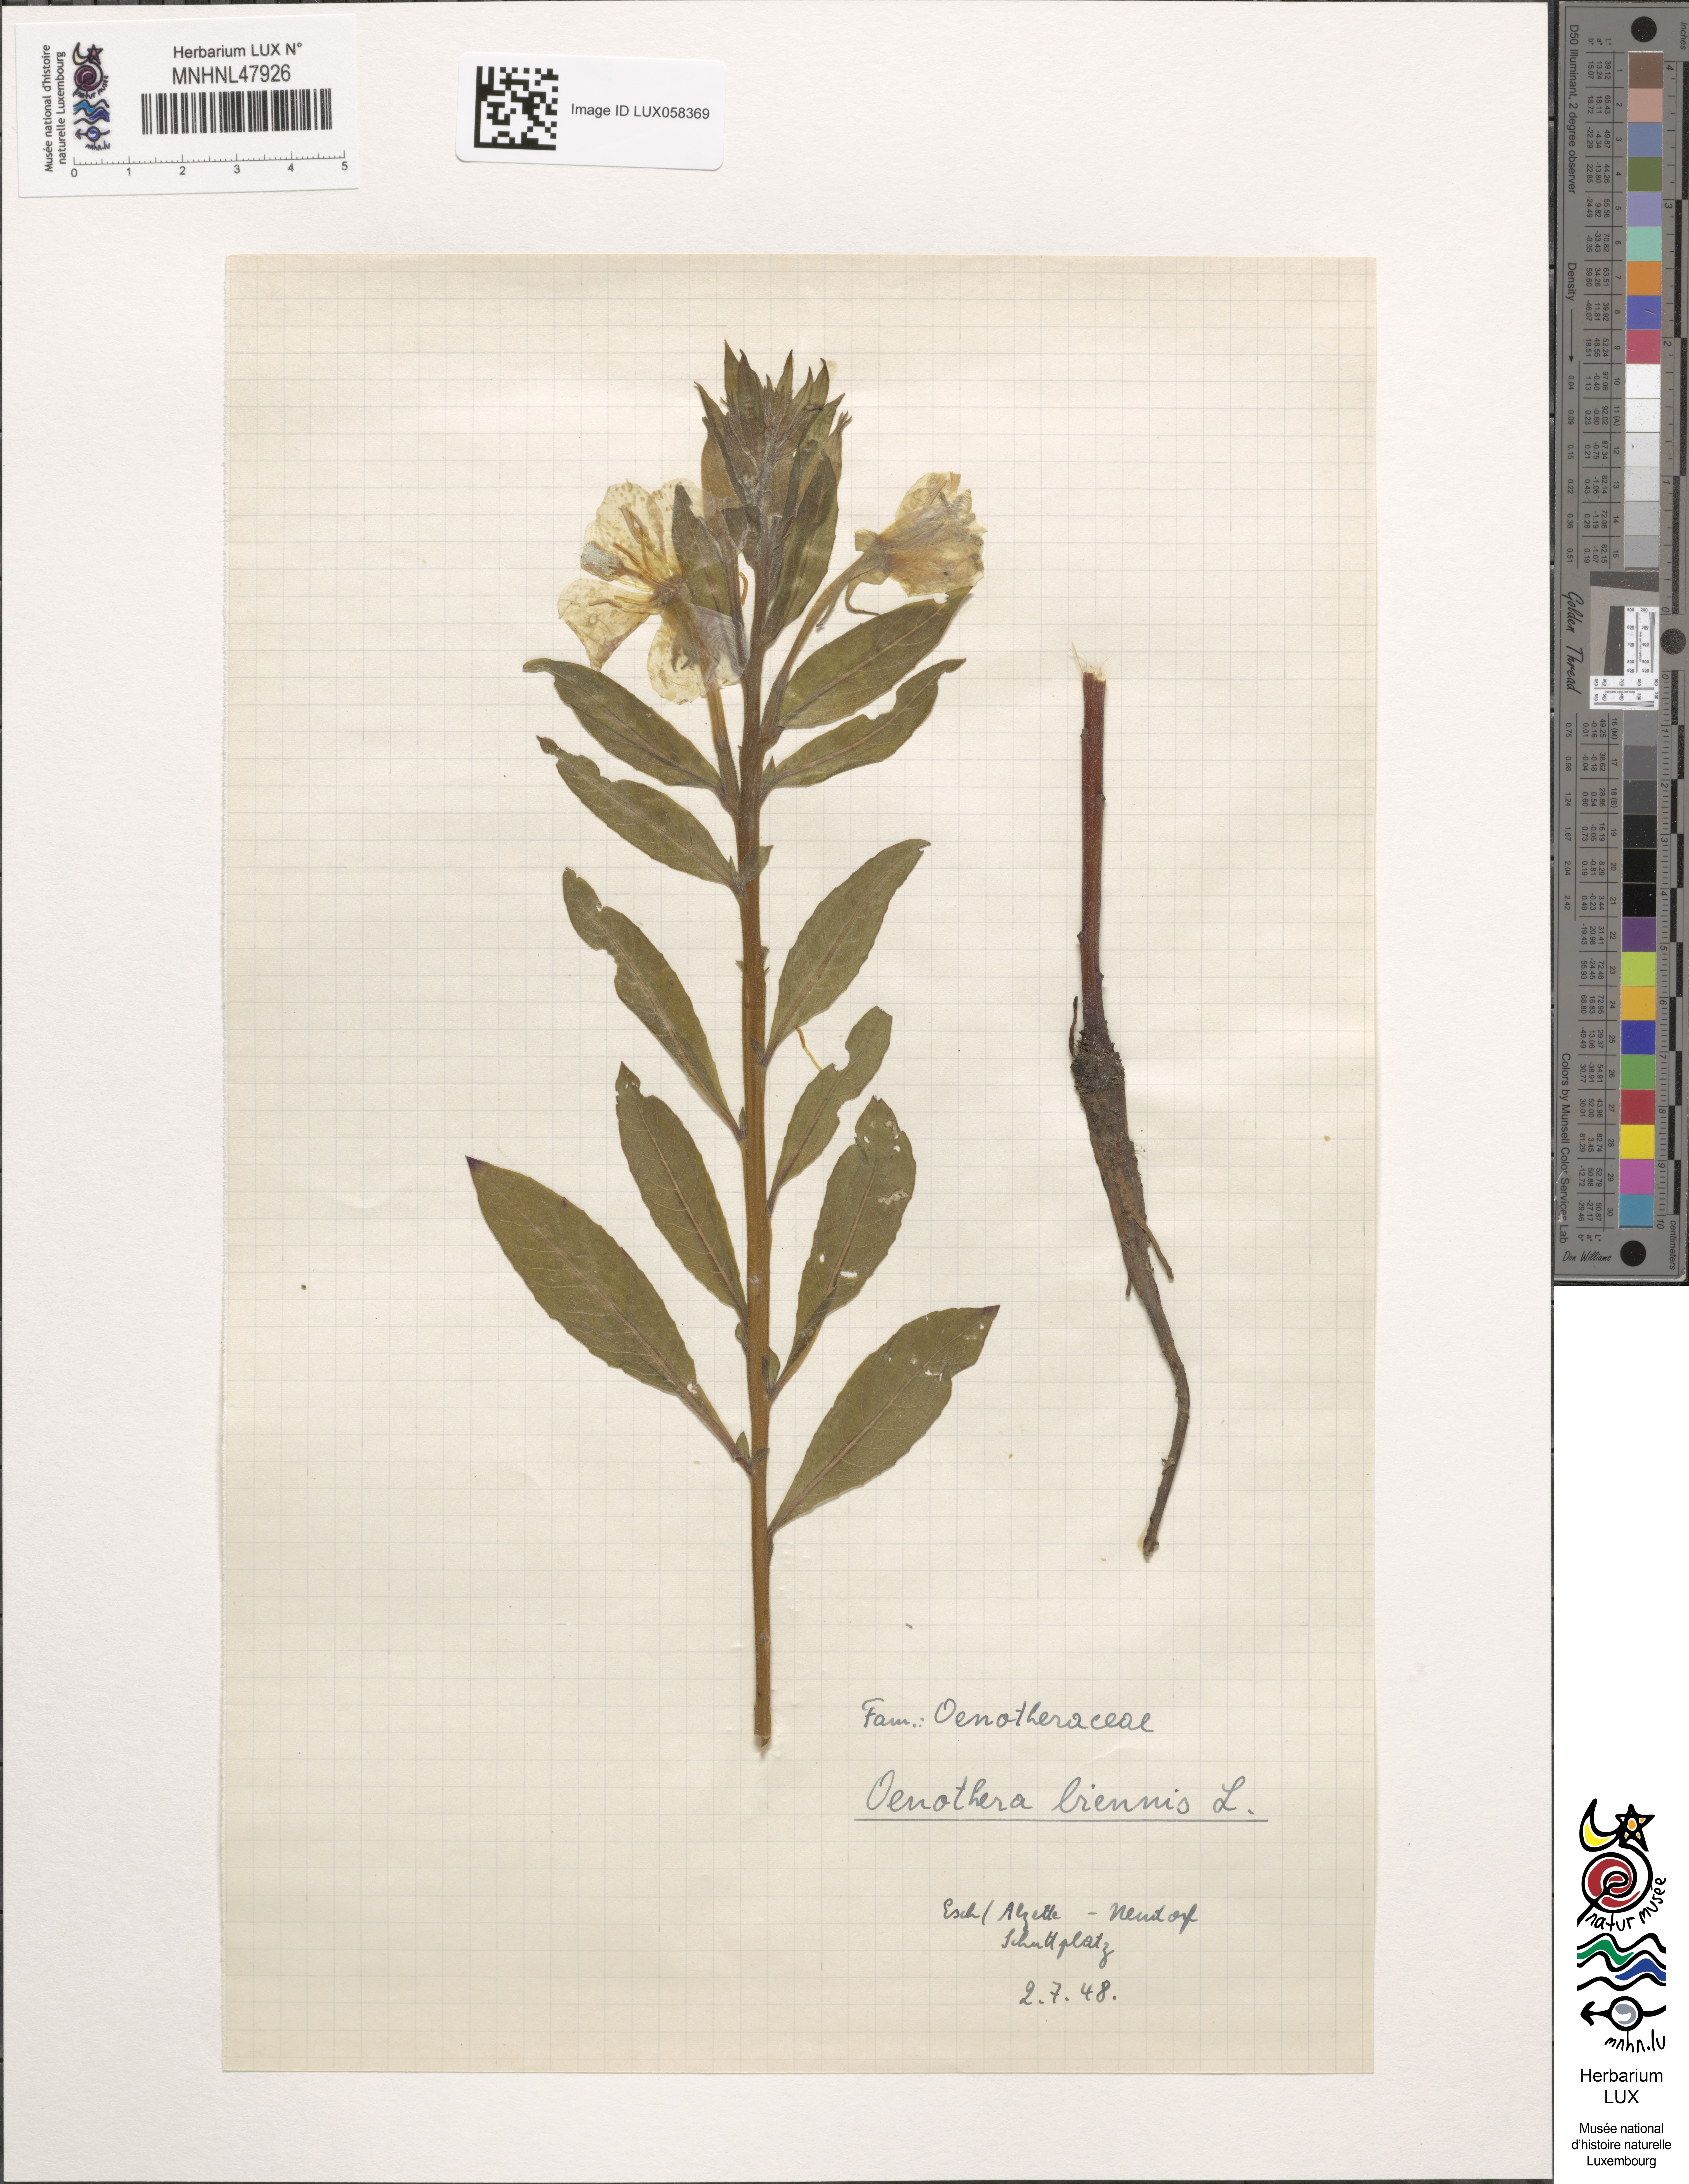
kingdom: Plantae
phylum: Tracheophyta
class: Magnoliopsida
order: Myrtales
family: Onagraceae
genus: Oenothera
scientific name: Oenothera biennis
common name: Common evening-primrose
